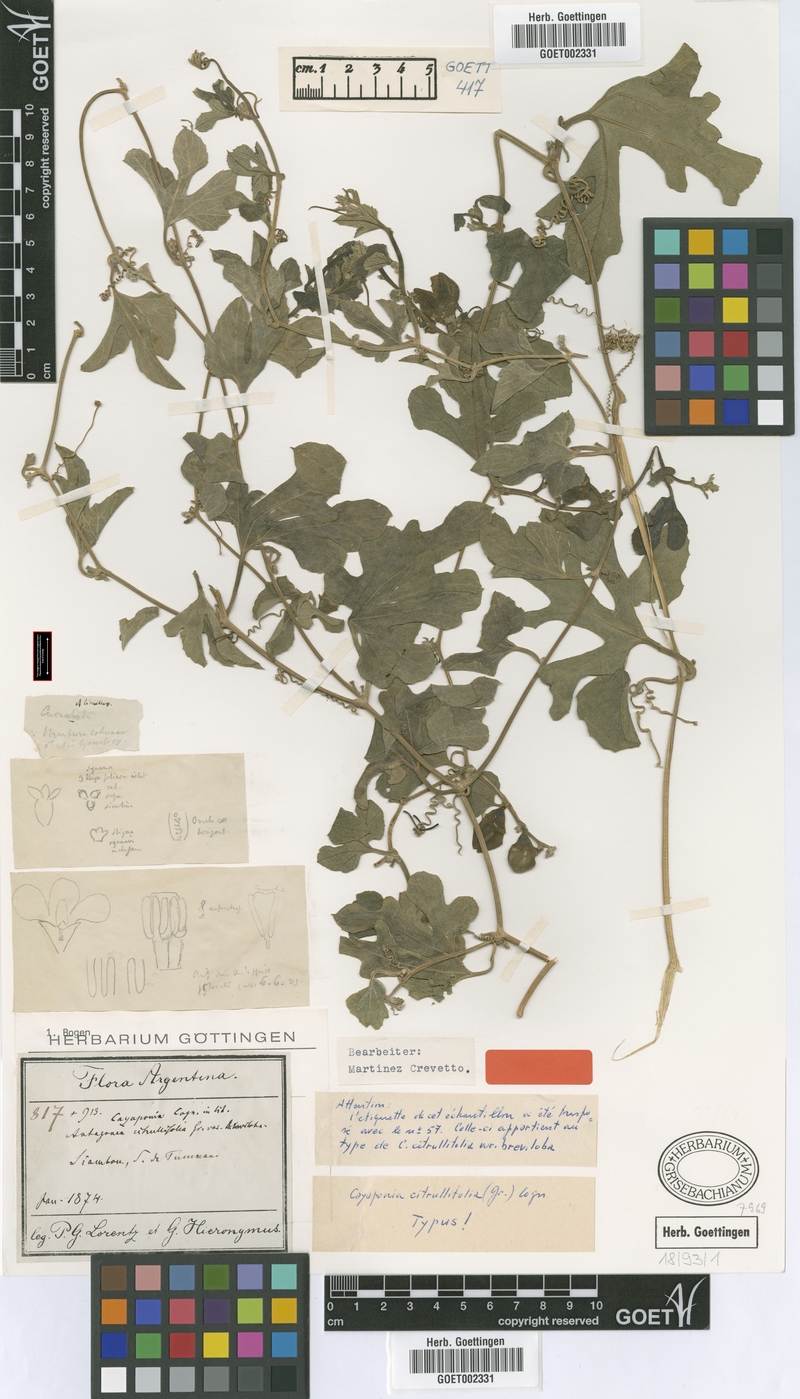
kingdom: Plantae
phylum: Tracheophyta
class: Magnoliopsida
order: Cucurbitales
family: Cucurbitaceae
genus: Cayaponia
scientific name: Cayaponia citrullifolia
